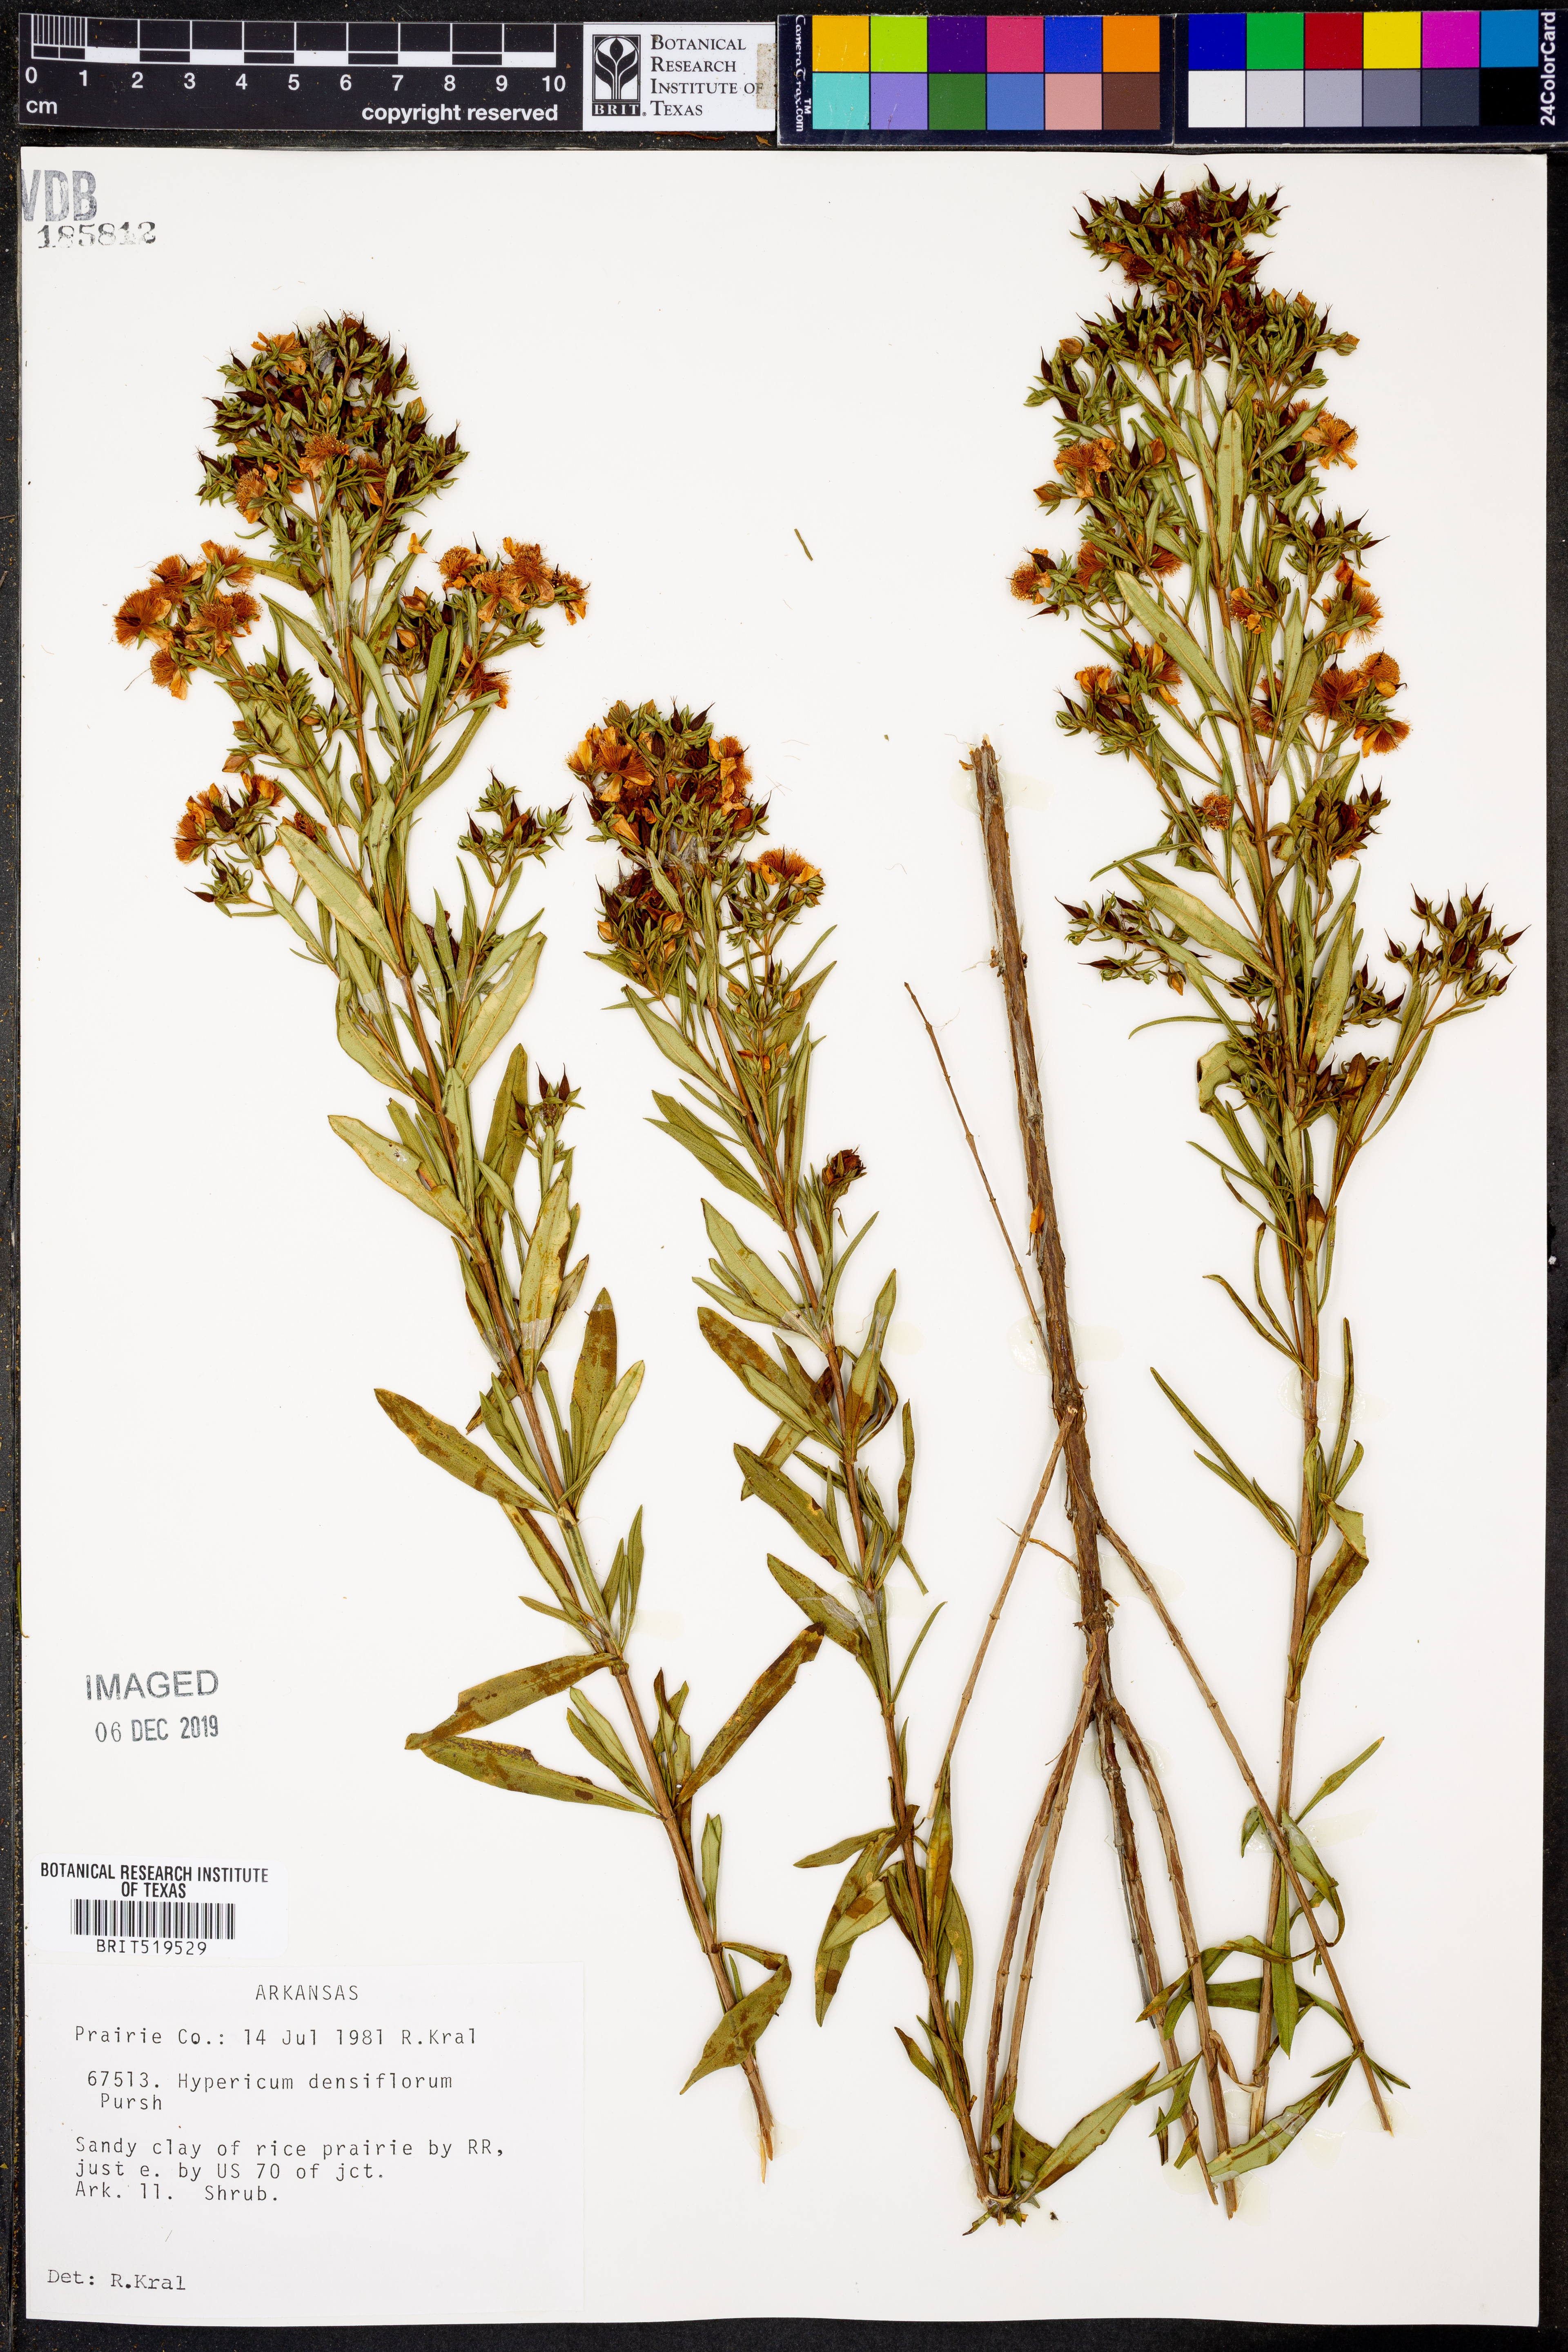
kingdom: Plantae
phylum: Tracheophyta
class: Magnoliopsida
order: Malpighiales
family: Hypericaceae
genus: Hypericum
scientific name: Hypericum densiflorum
